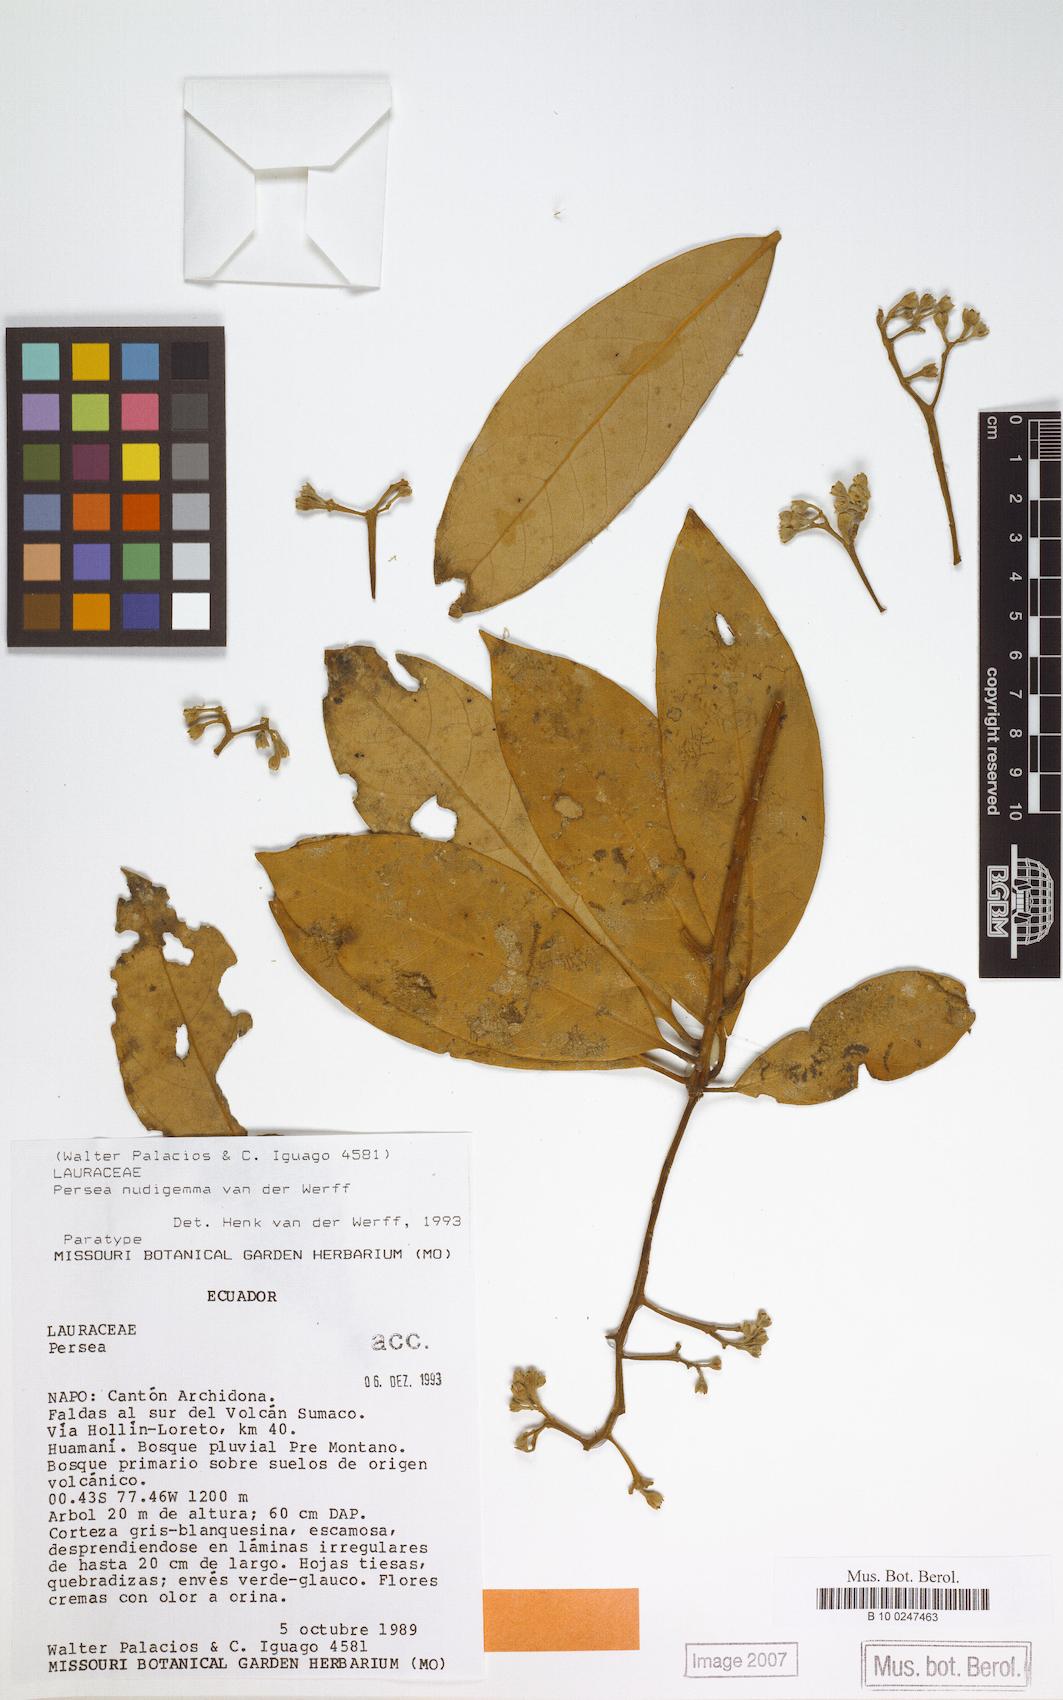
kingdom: Plantae
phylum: Tracheophyta
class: Magnoliopsida
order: Laurales
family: Lauraceae
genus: Persea
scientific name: Persea nudigemma
